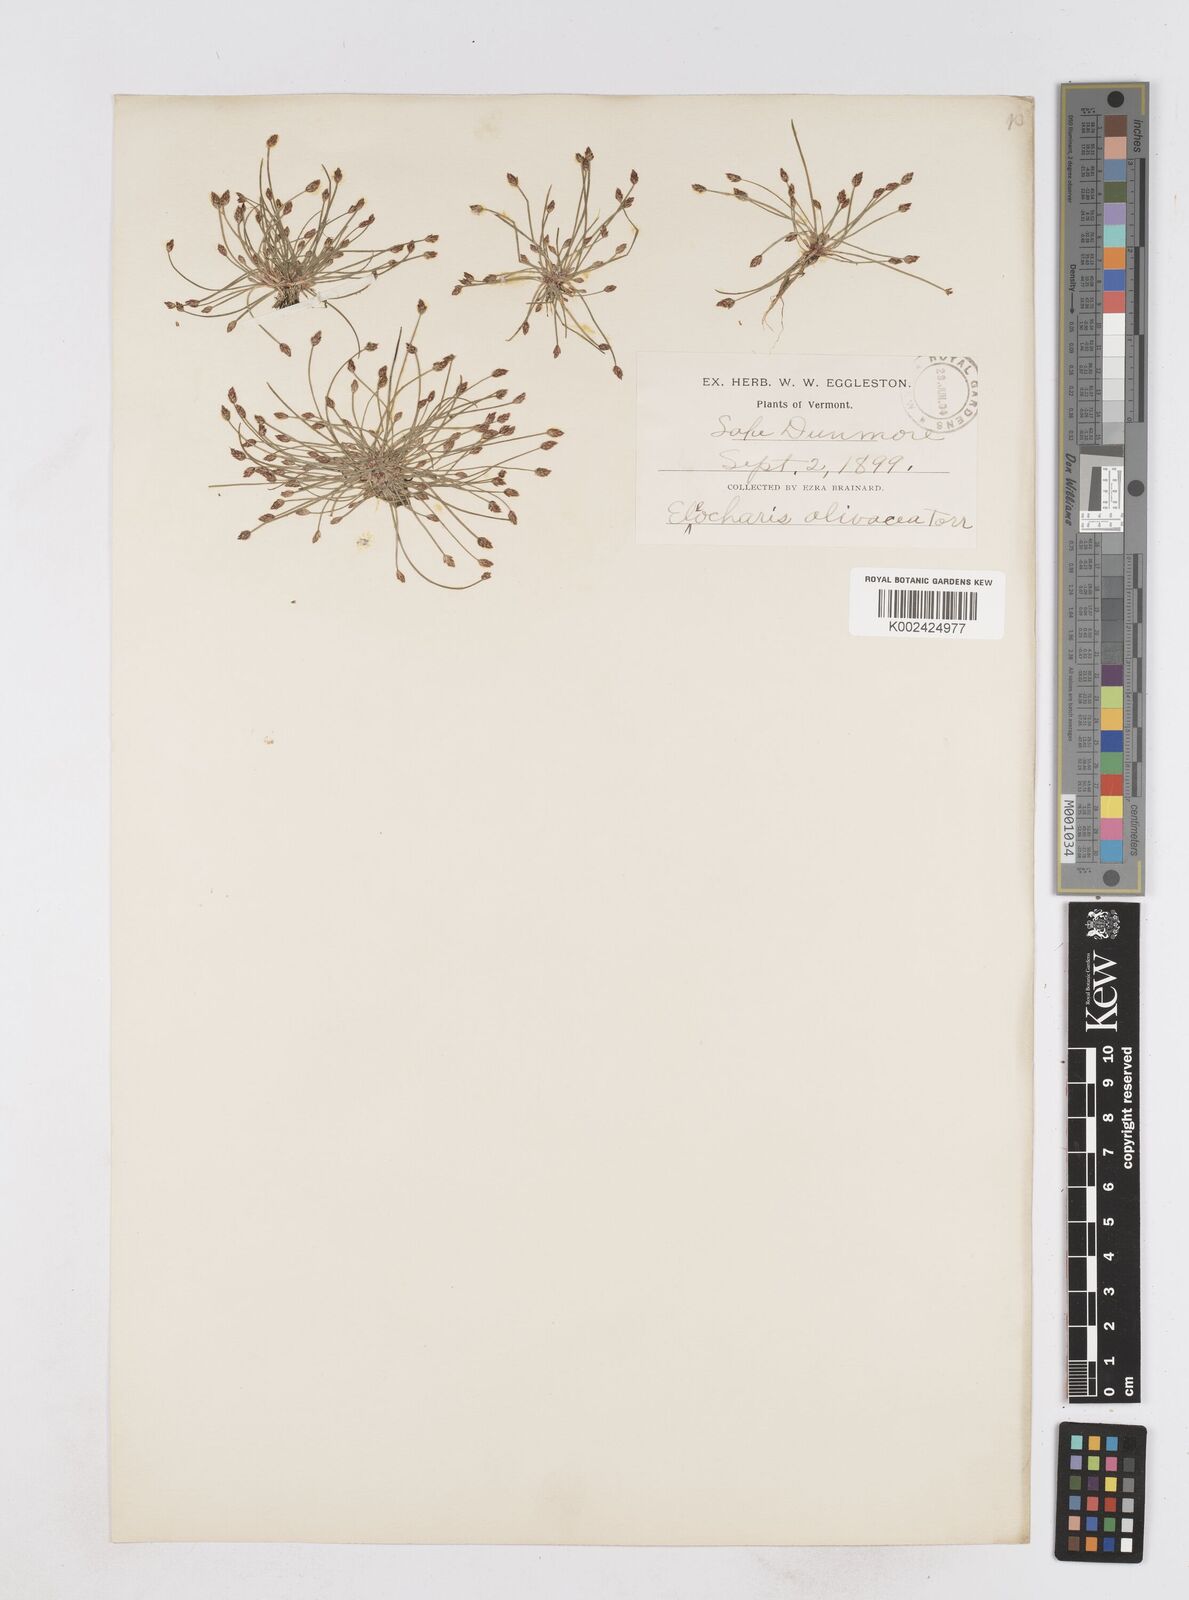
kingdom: Plantae
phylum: Tracheophyta
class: Liliopsida
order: Poales
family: Cyperaceae
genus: Eleocharis
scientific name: Eleocharis flavescens
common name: Yellow spikerush
